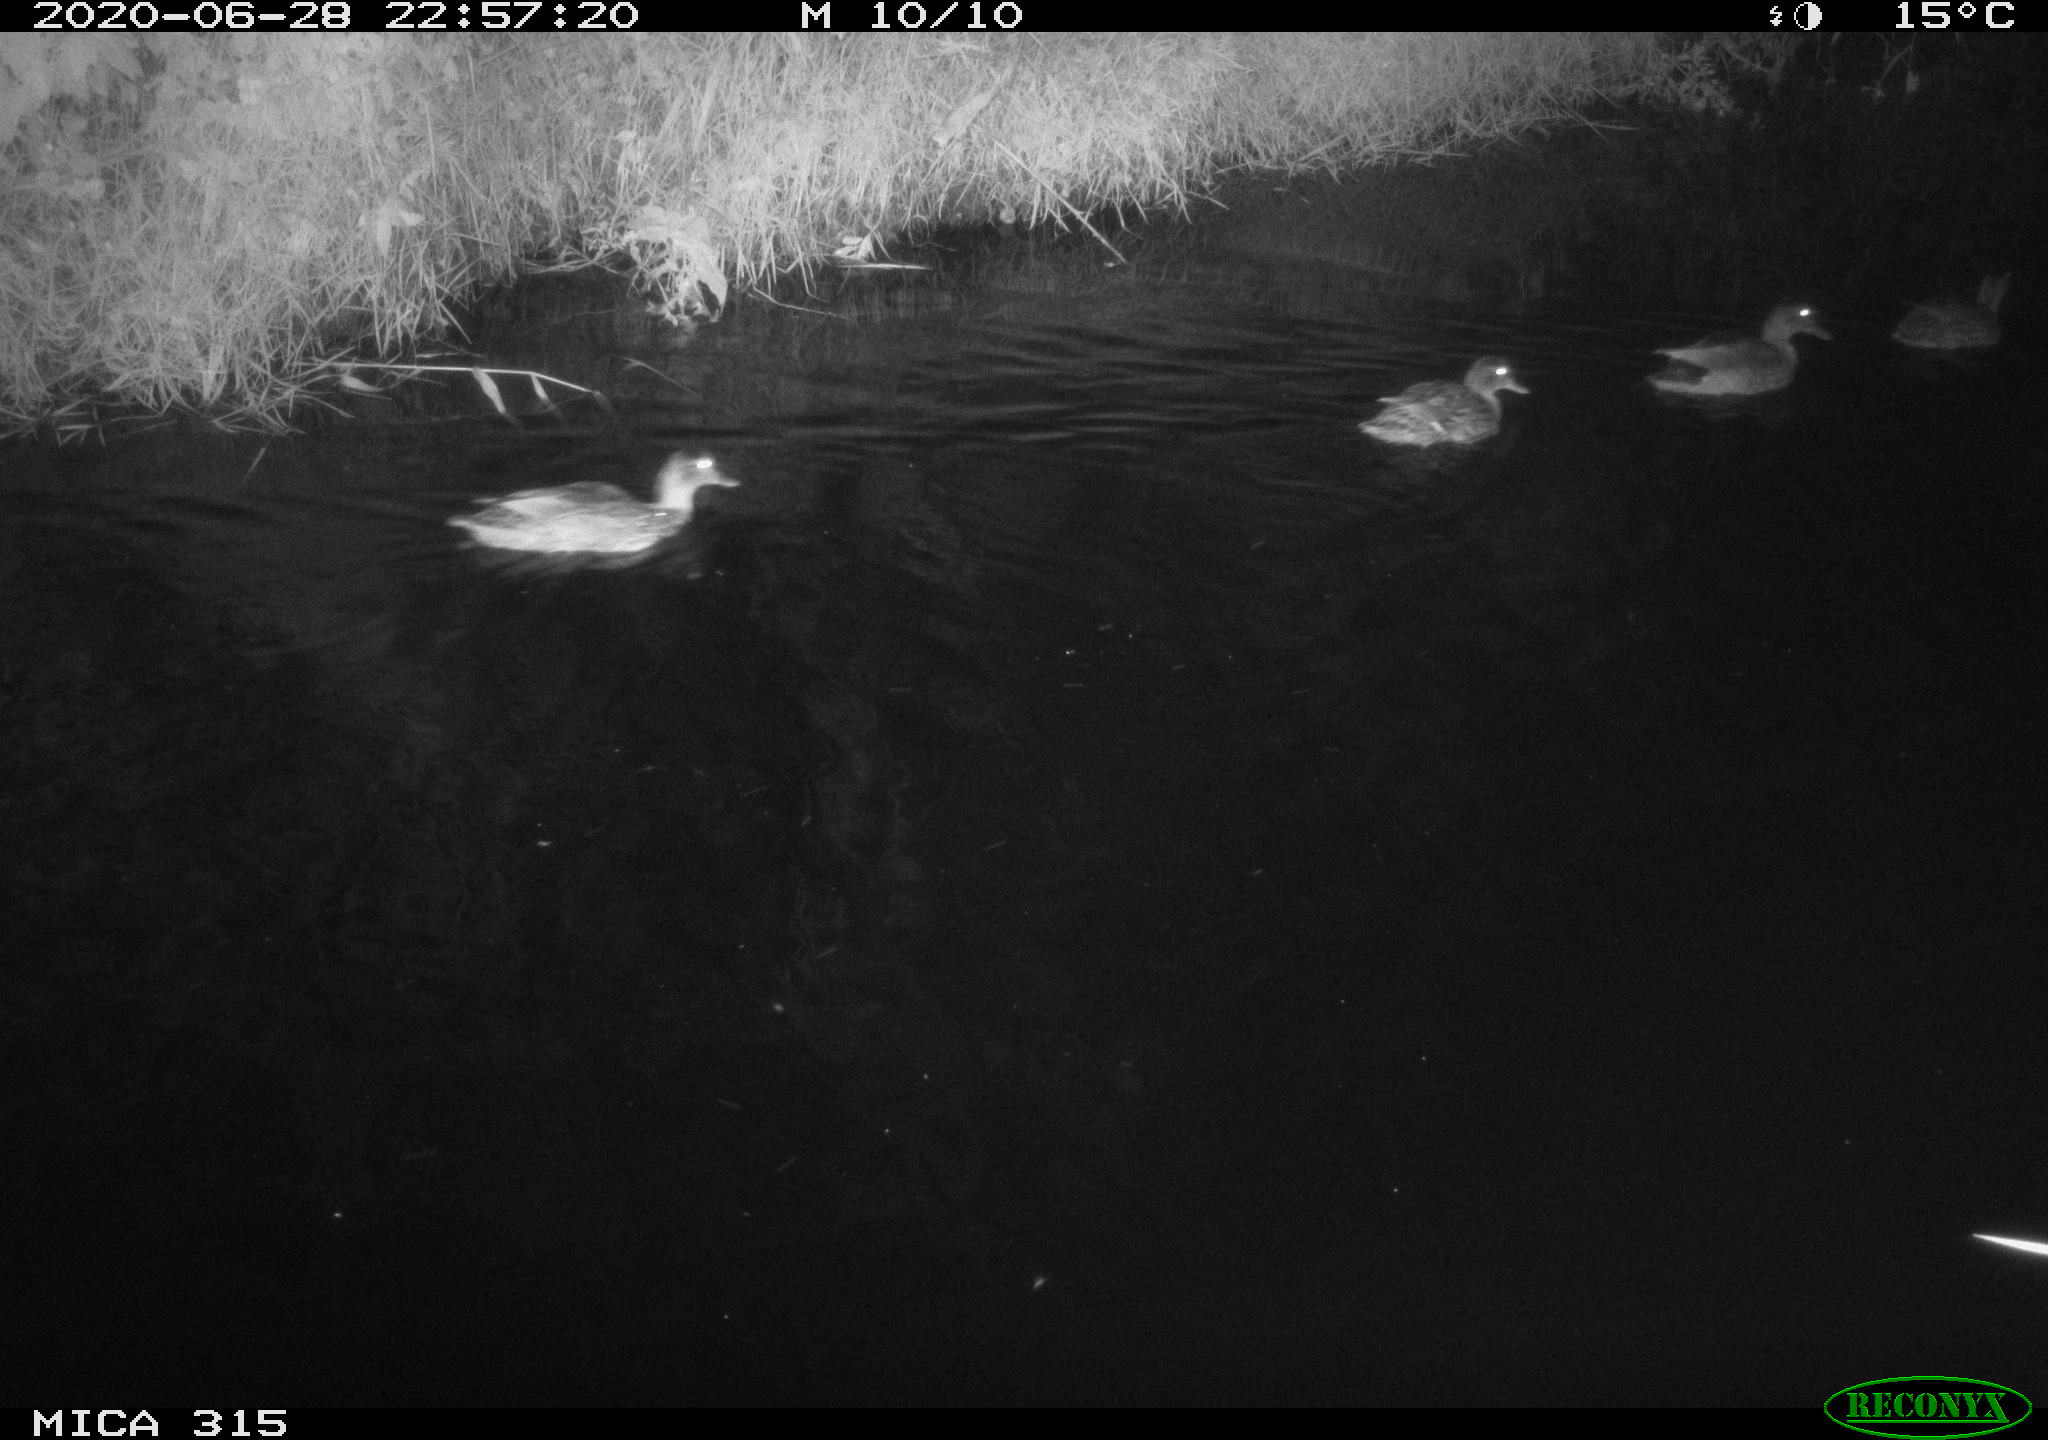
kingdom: Animalia
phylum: Chordata
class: Aves
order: Anseriformes
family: Anatidae
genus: Anas
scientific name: Anas platyrhynchos
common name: Mallard
